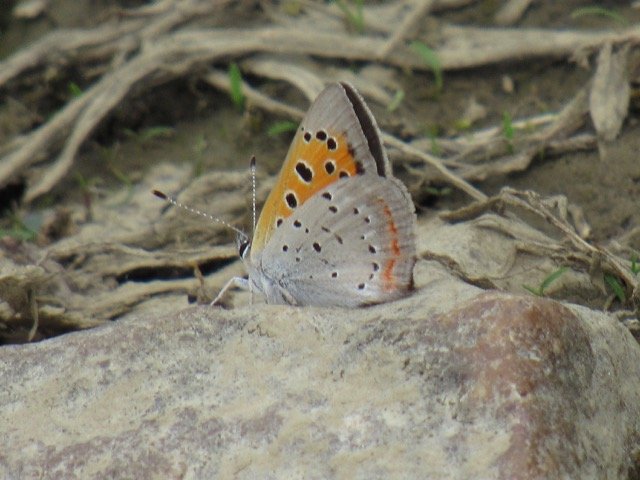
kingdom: Animalia
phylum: Arthropoda
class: Insecta
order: Lepidoptera
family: Lycaenidae
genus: Lycaena
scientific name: Lycaena phlaeas
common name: American Copper
